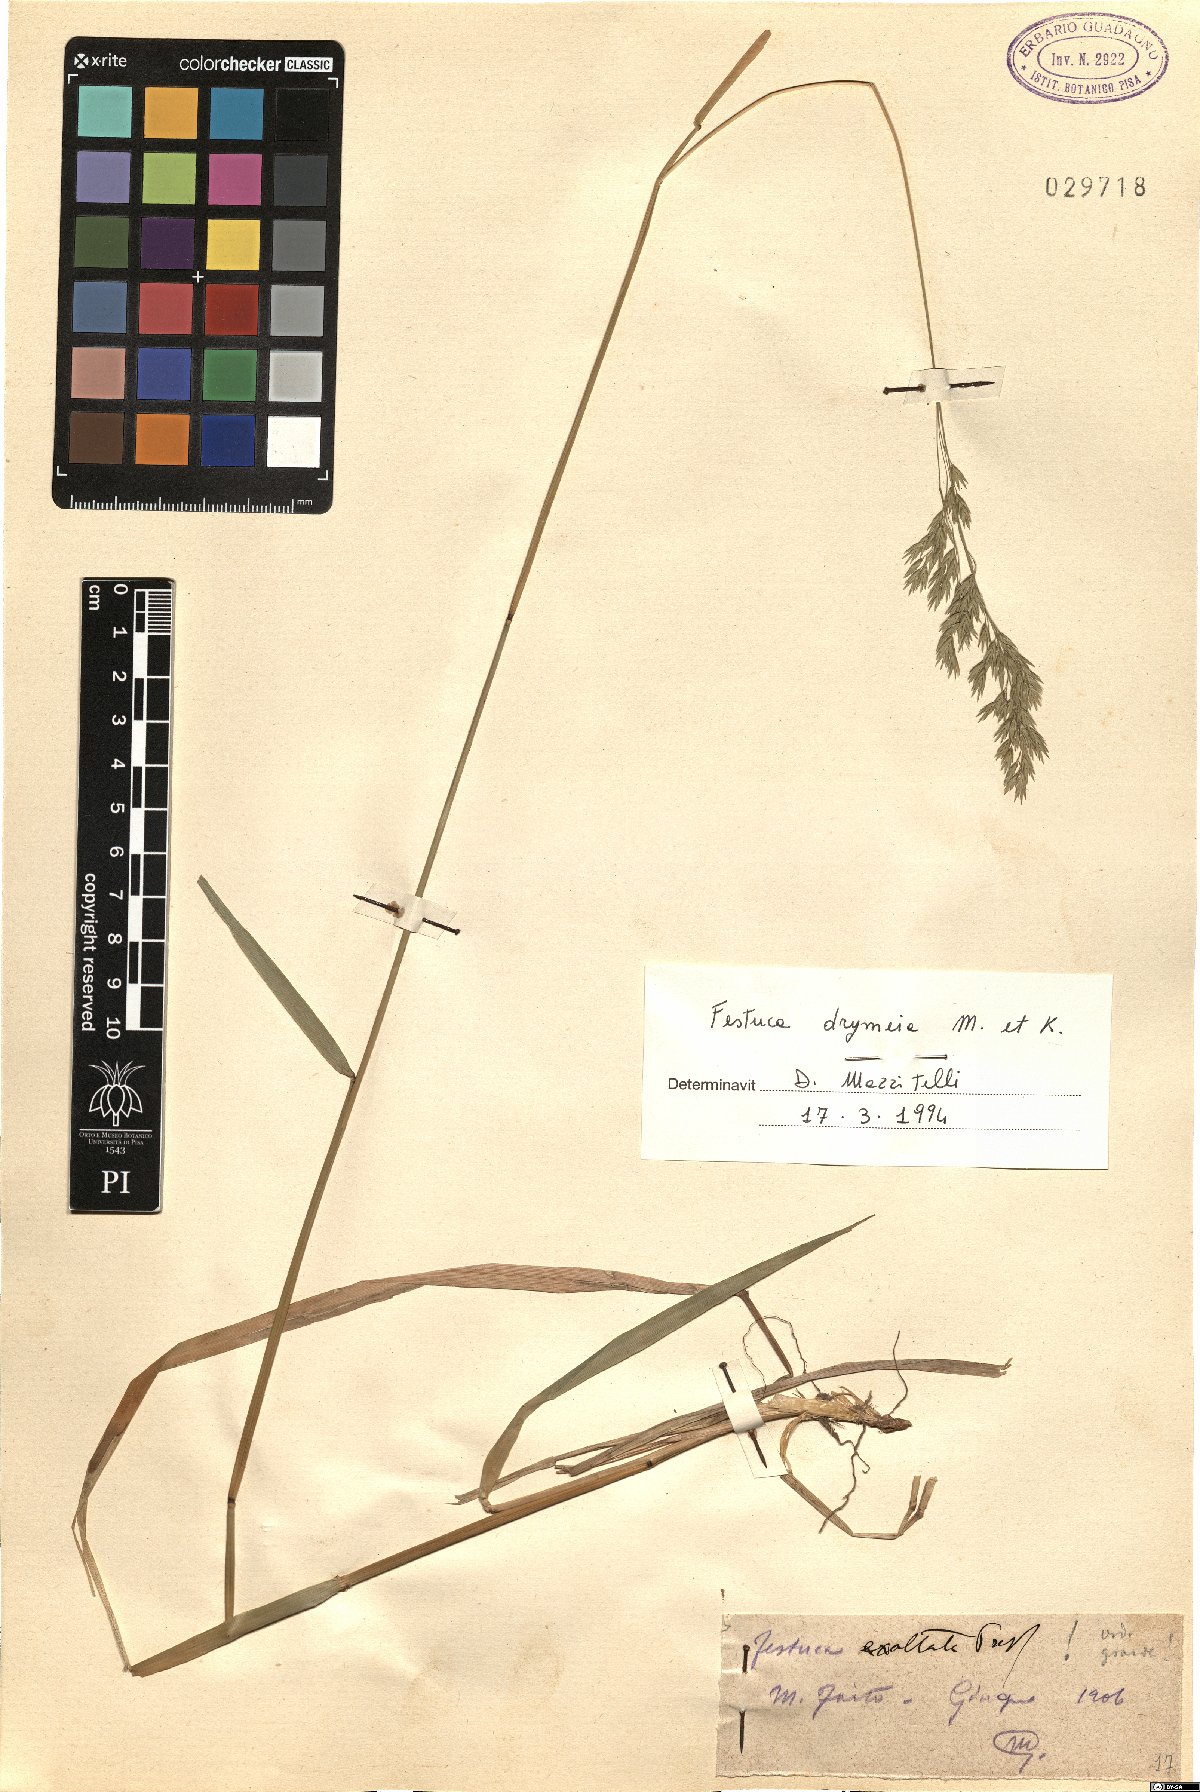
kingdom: Plantae
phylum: Tracheophyta
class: Liliopsida
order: Poales
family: Poaceae
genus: Festuca
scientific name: Festuca drymeja
